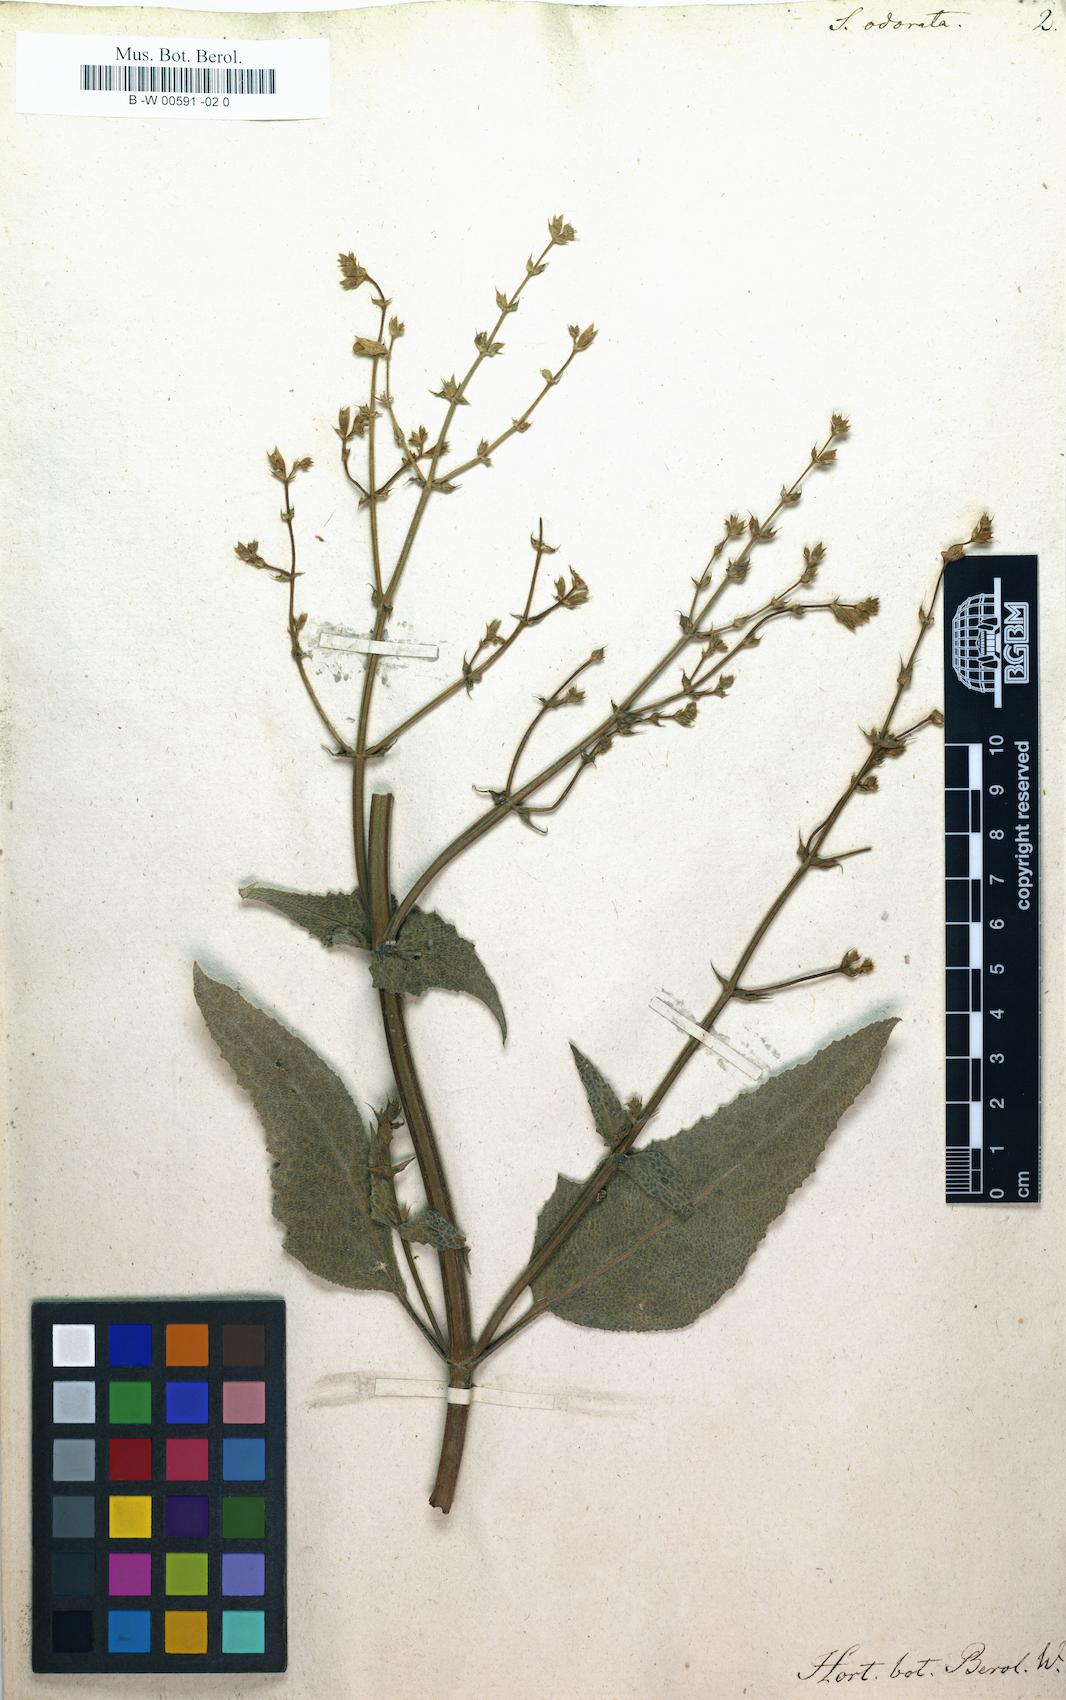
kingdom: Plantae
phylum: Tracheophyta
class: Magnoliopsida
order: Lamiales
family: Lamiaceae
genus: Salvia
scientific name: Salvia candidissima
